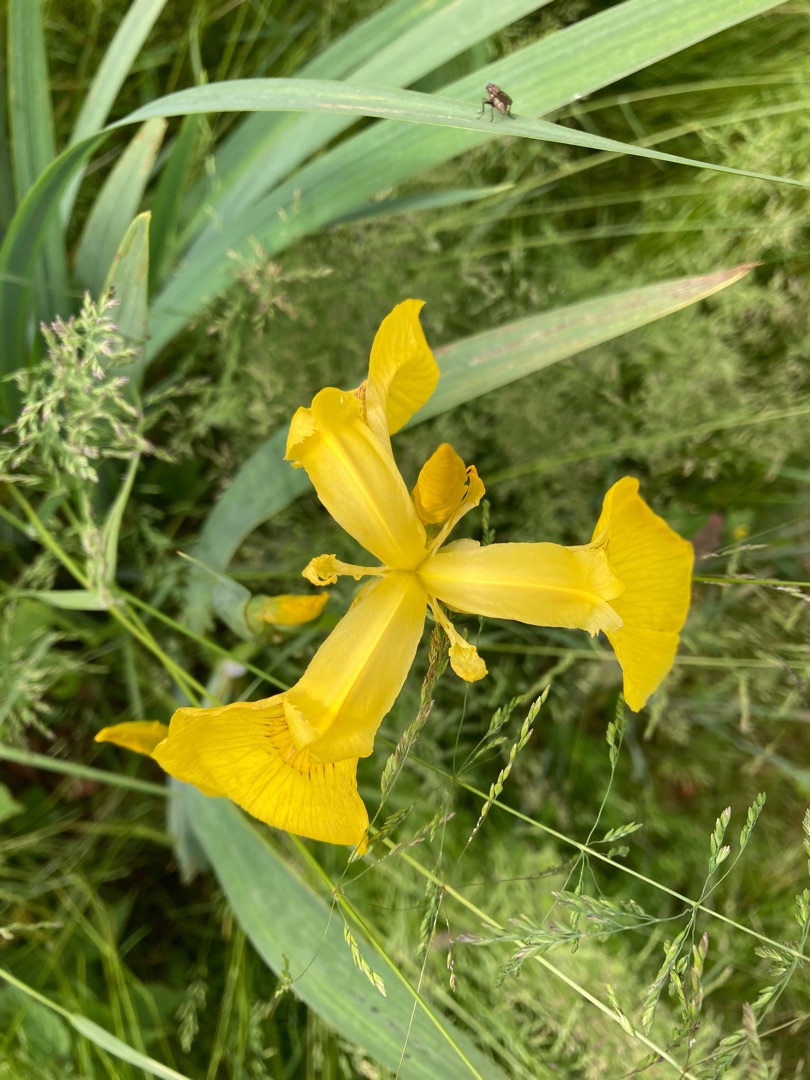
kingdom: Plantae
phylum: Tracheophyta
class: Liliopsida
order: Asparagales
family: Iridaceae
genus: Iris
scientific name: Iris pseudacorus
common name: Gul iris
